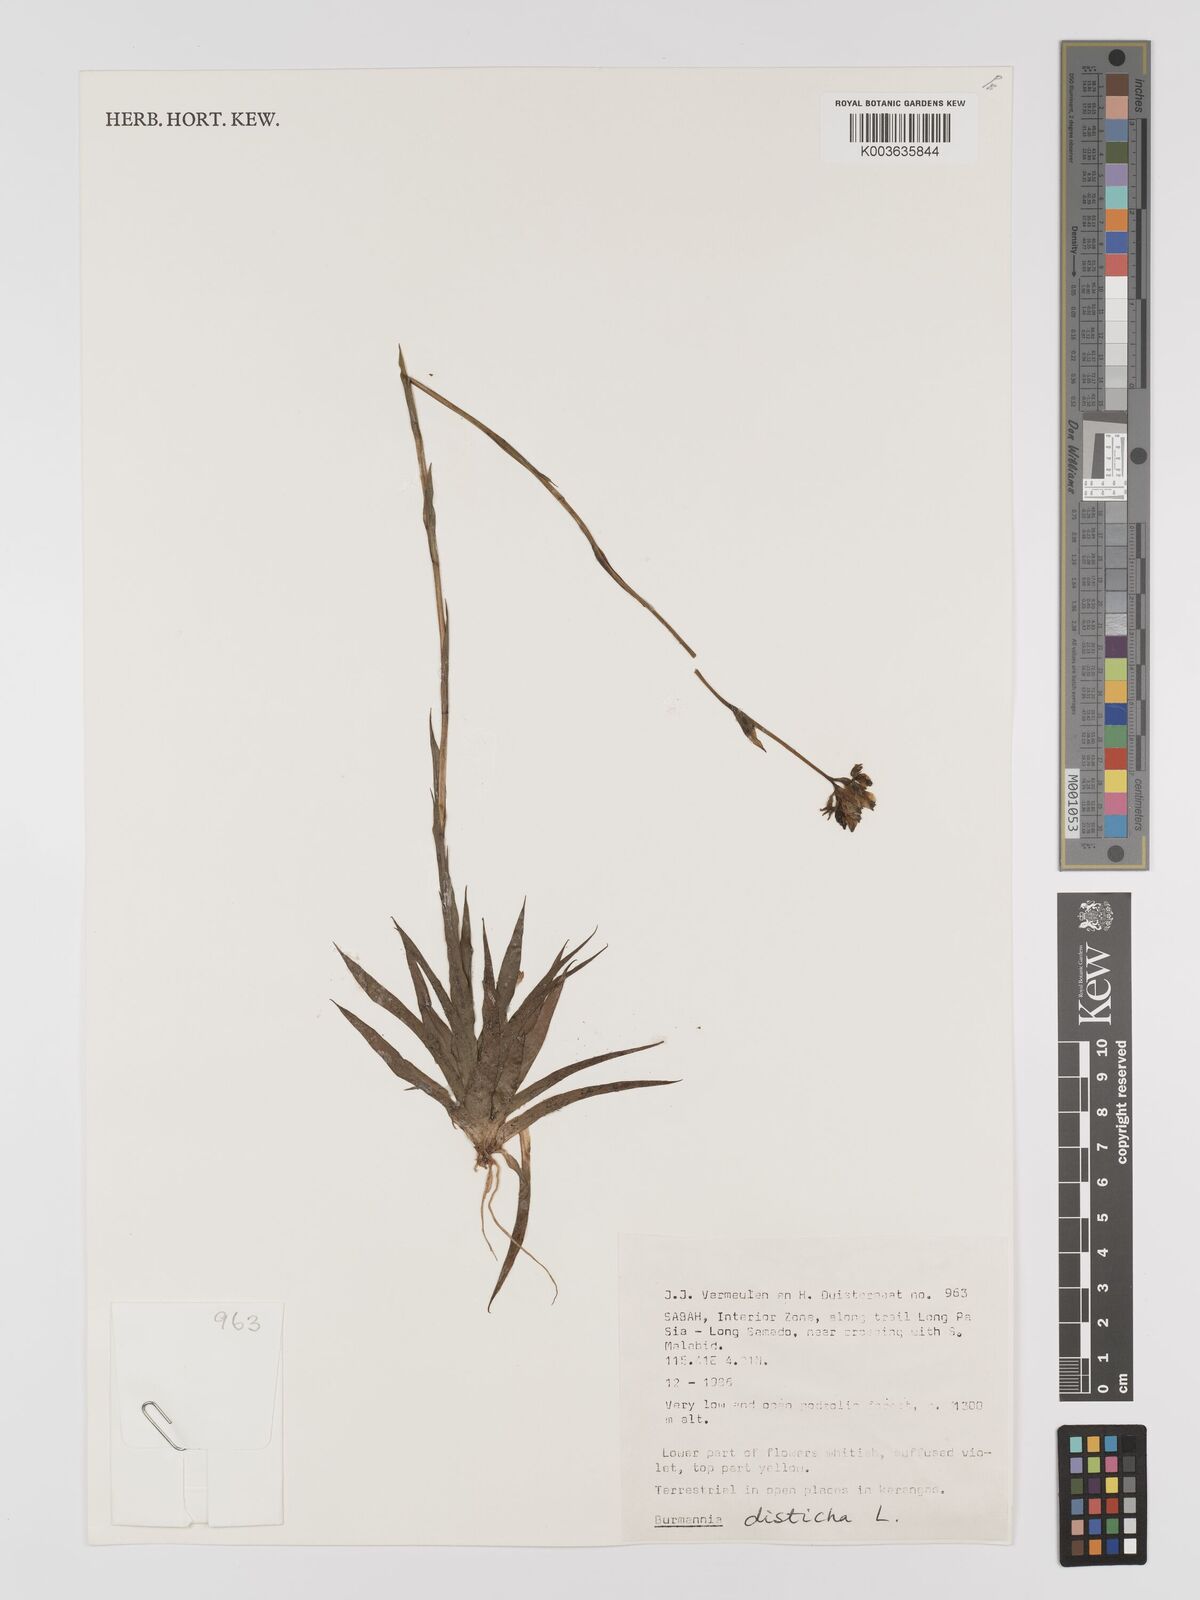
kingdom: Plantae
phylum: Tracheophyta
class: Liliopsida
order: Dioscoreales
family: Burmanniaceae
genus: Burmannia
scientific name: Burmannia disticha
